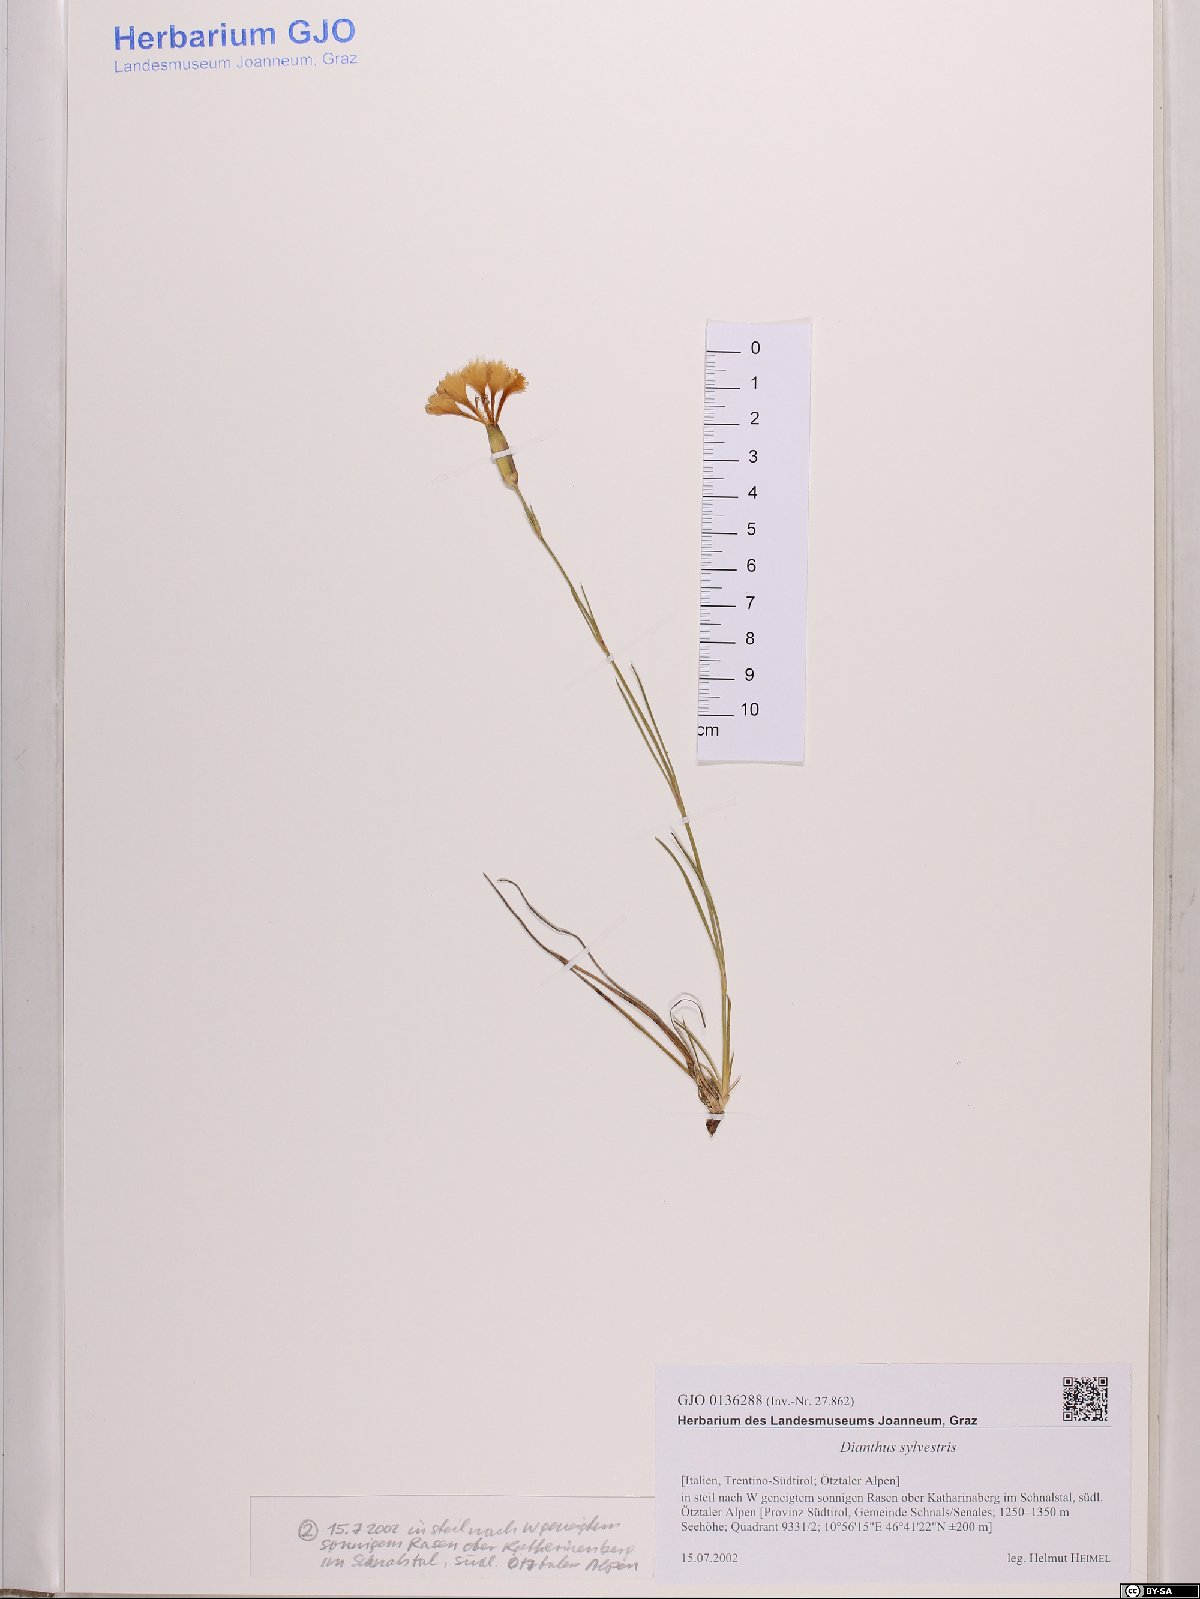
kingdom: Plantae
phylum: Tracheophyta
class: Magnoliopsida
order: Caryophyllales
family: Caryophyllaceae
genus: Dianthus
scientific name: Dianthus sylvestris
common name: Wood pink
